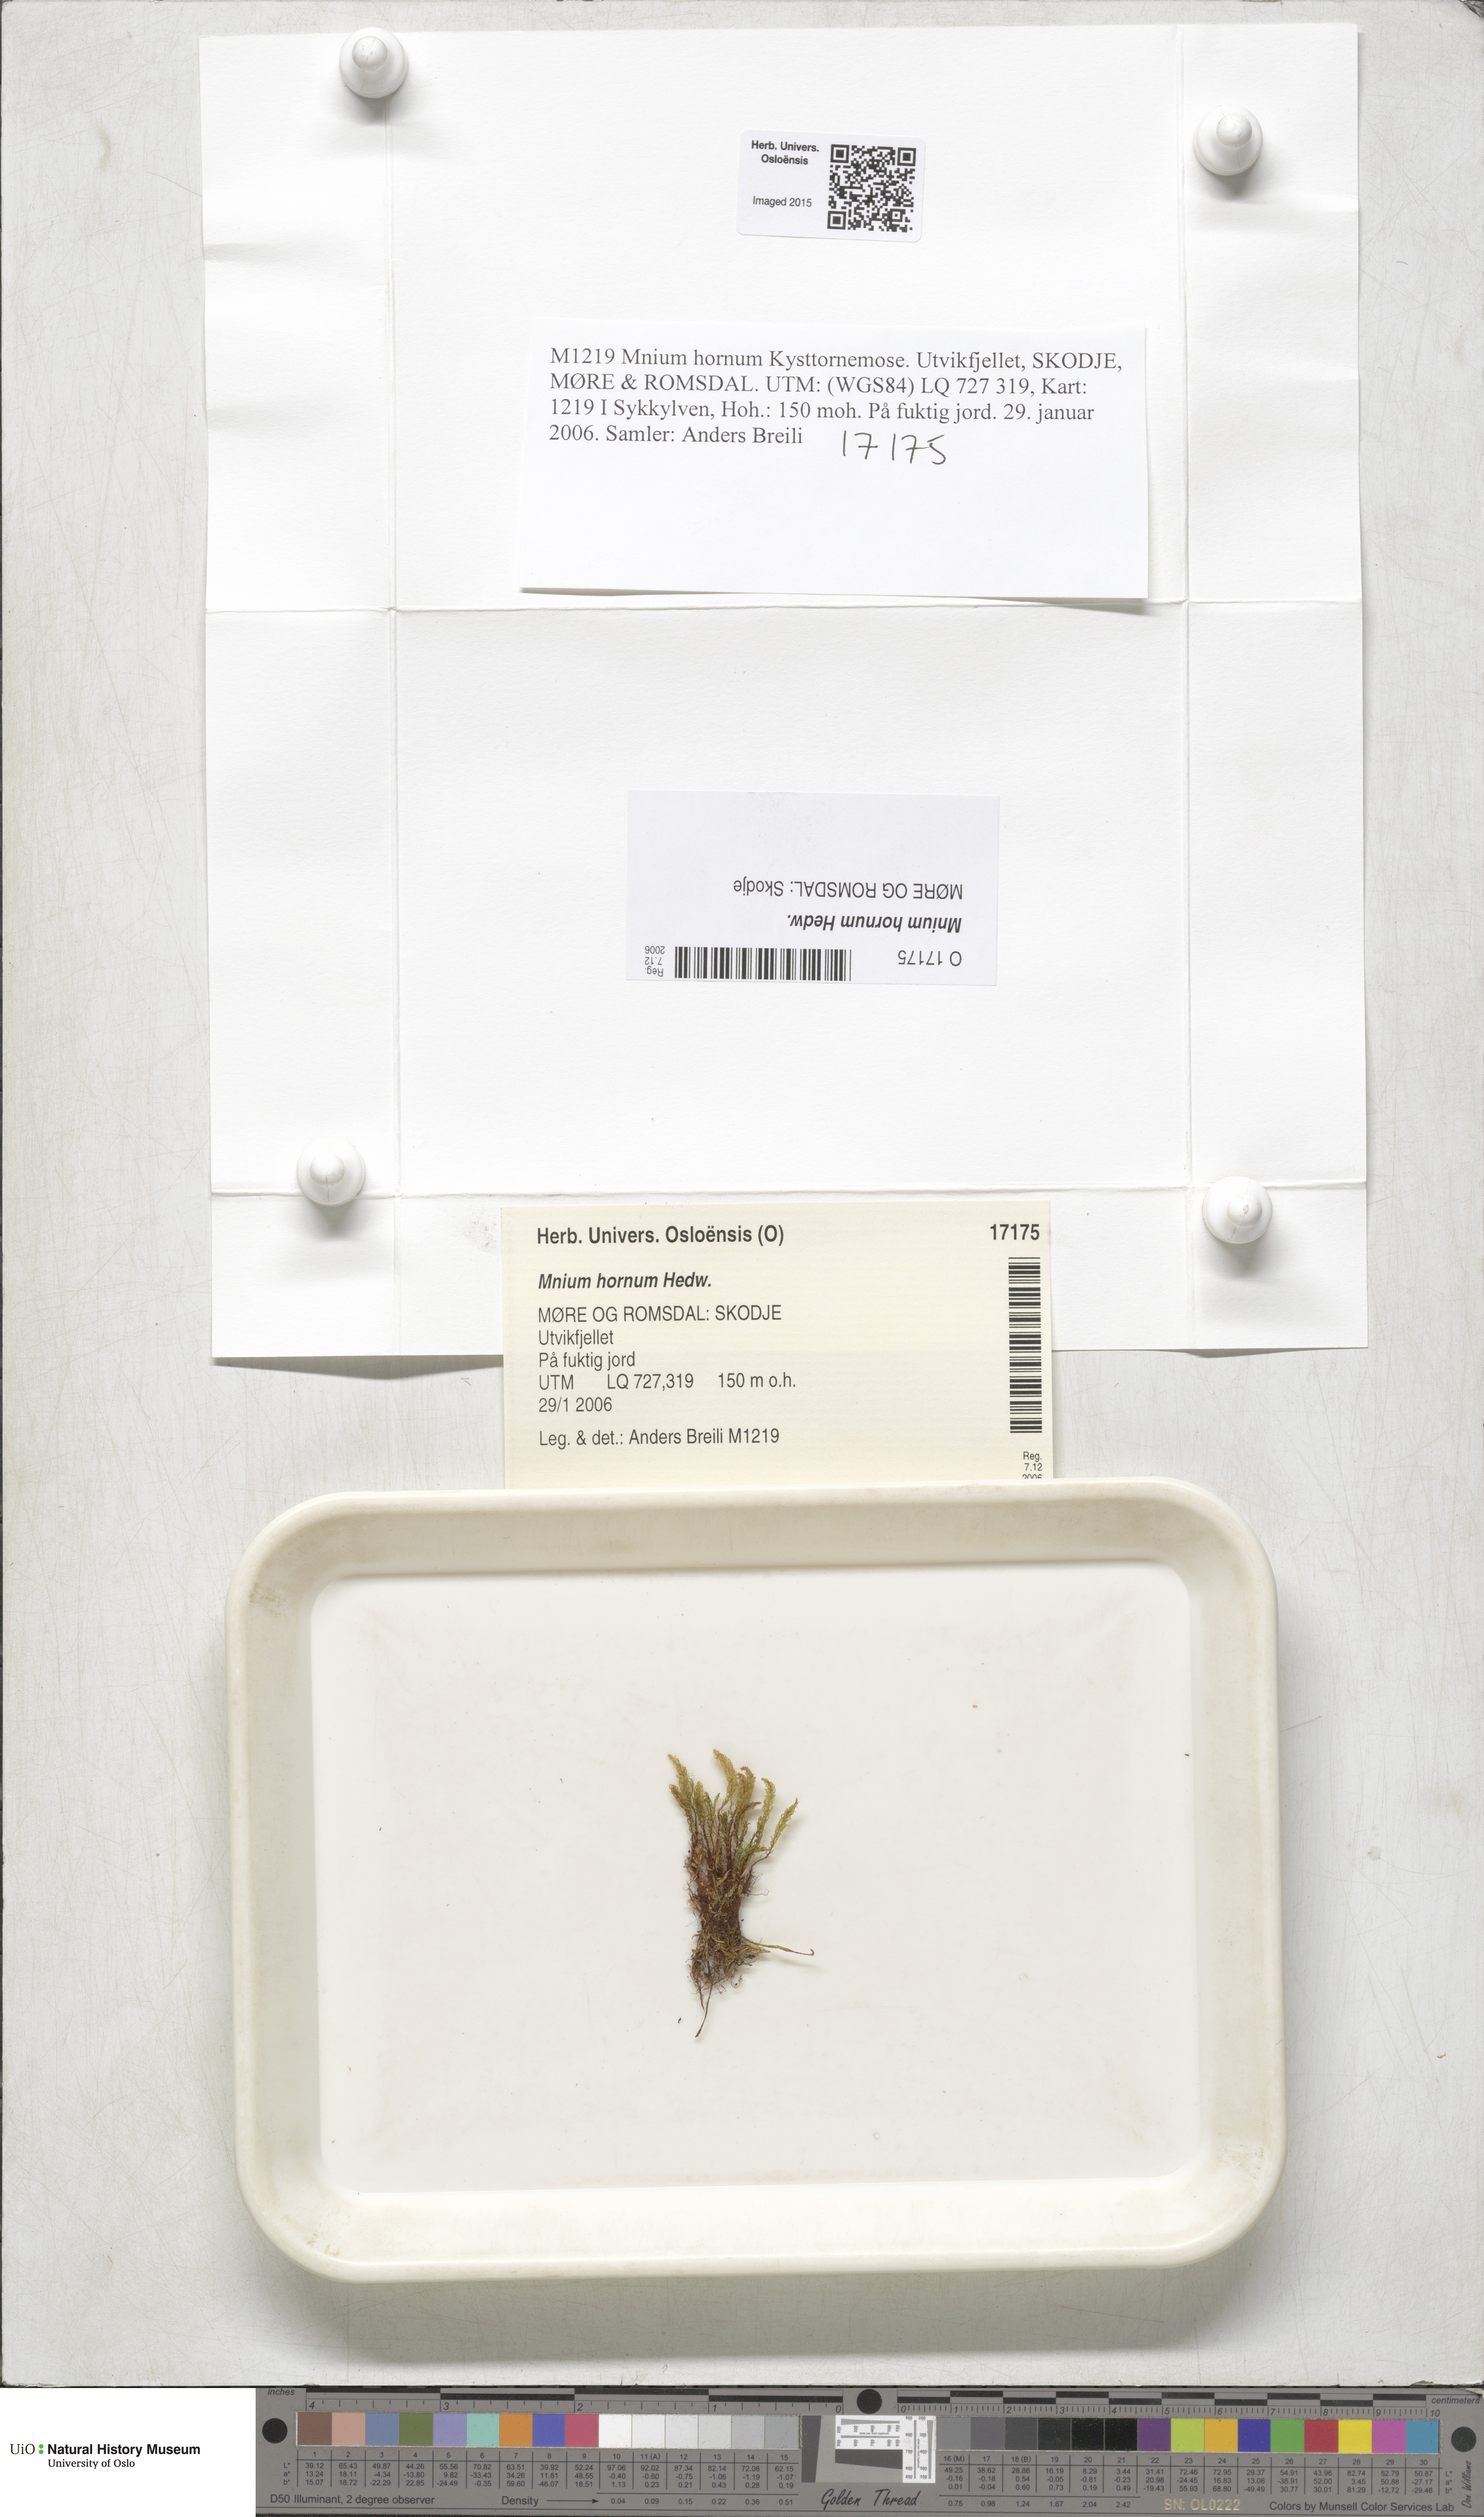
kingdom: Plantae
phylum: Bryophyta
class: Bryopsida
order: Bryales
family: Mniaceae
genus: Mnium
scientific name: Mnium hornum
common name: Swan's-neck leafy moss
